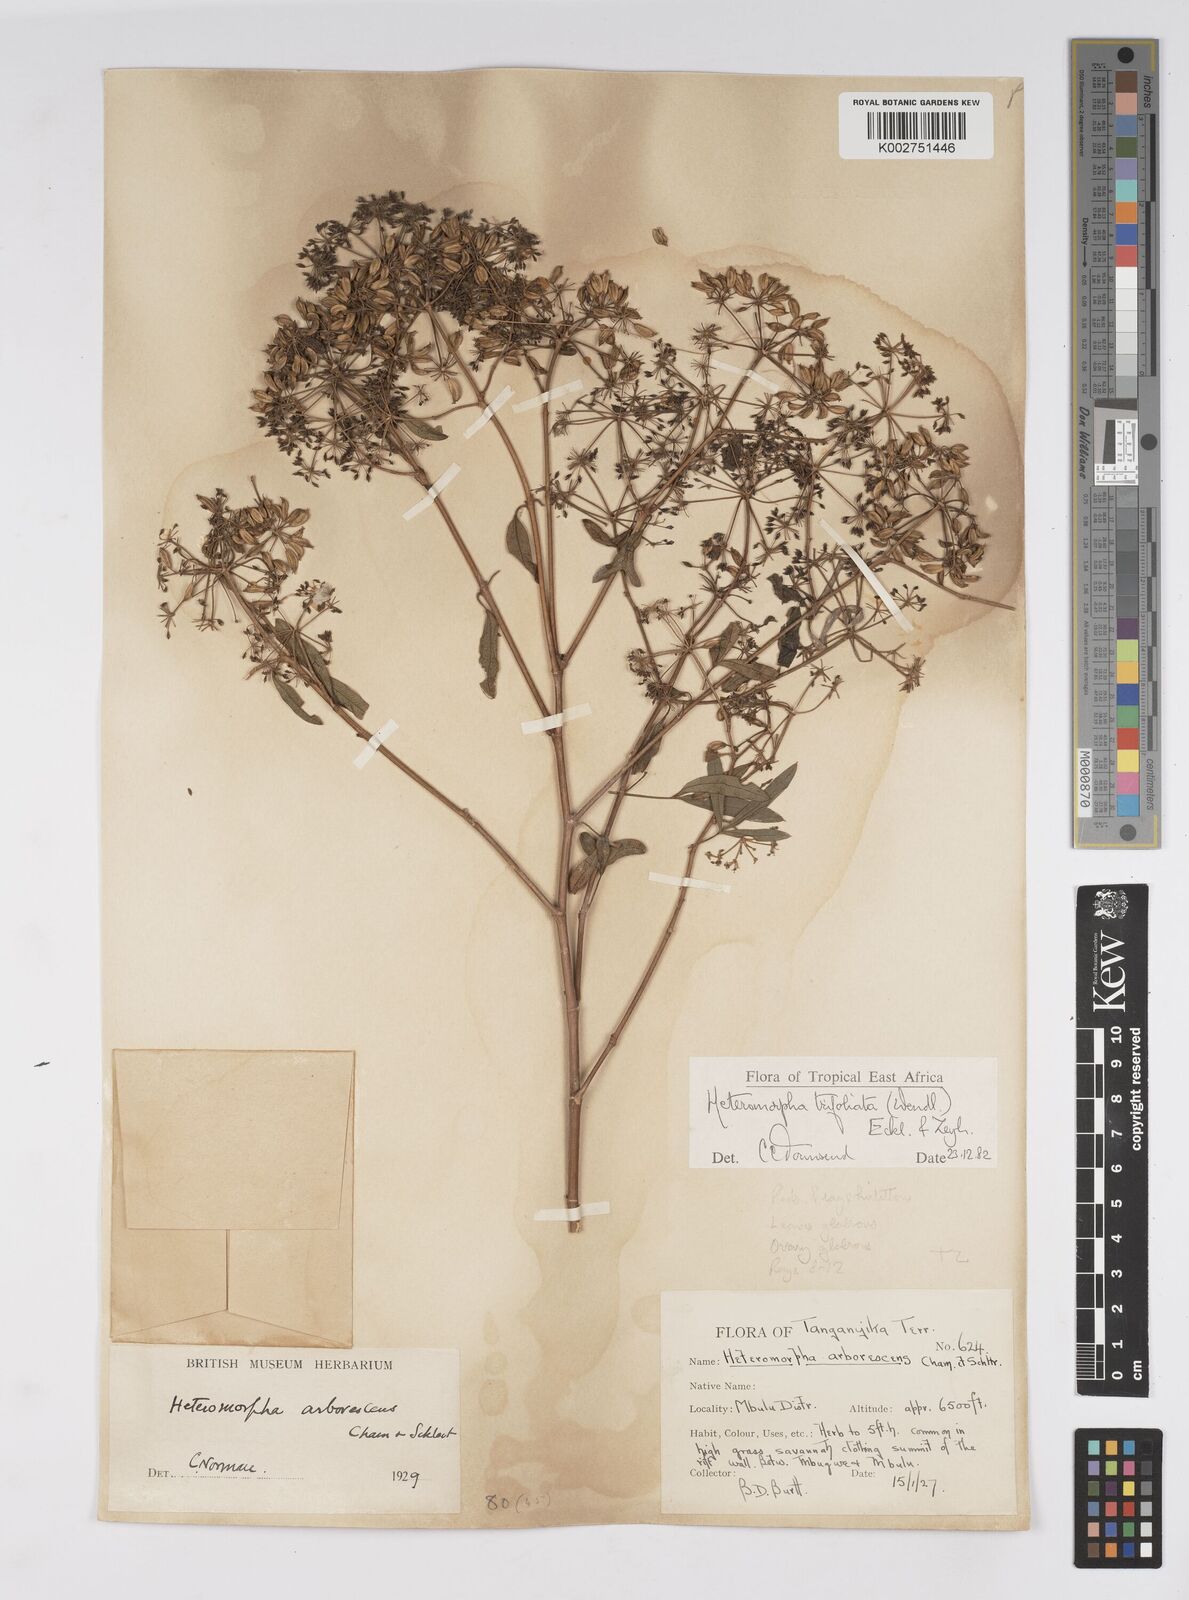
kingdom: Plantae
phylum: Tracheophyta
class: Magnoliopsida
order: Apiales
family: Apiaceae
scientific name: Apiaceae
